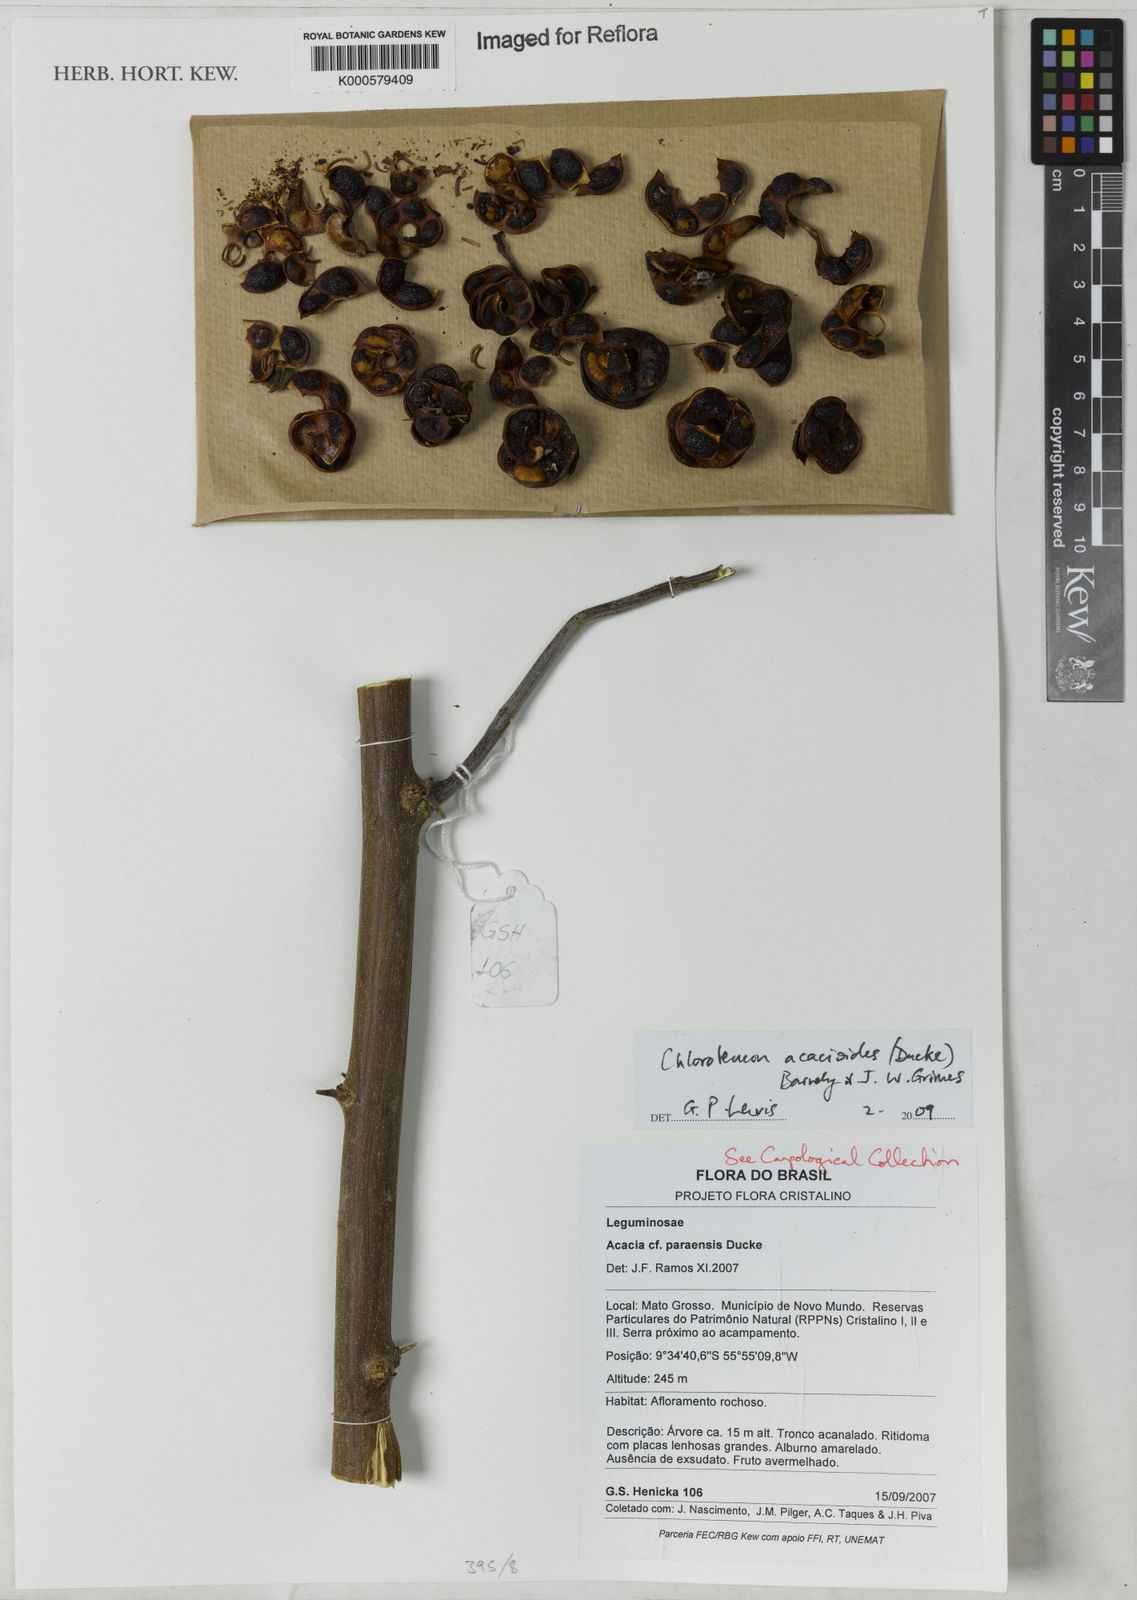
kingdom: Plantae
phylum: Tracheophyta
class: Magnoliopsida
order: Fabales
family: Fabaceae
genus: Chloroleucon
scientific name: Chloroleucon acacioides
